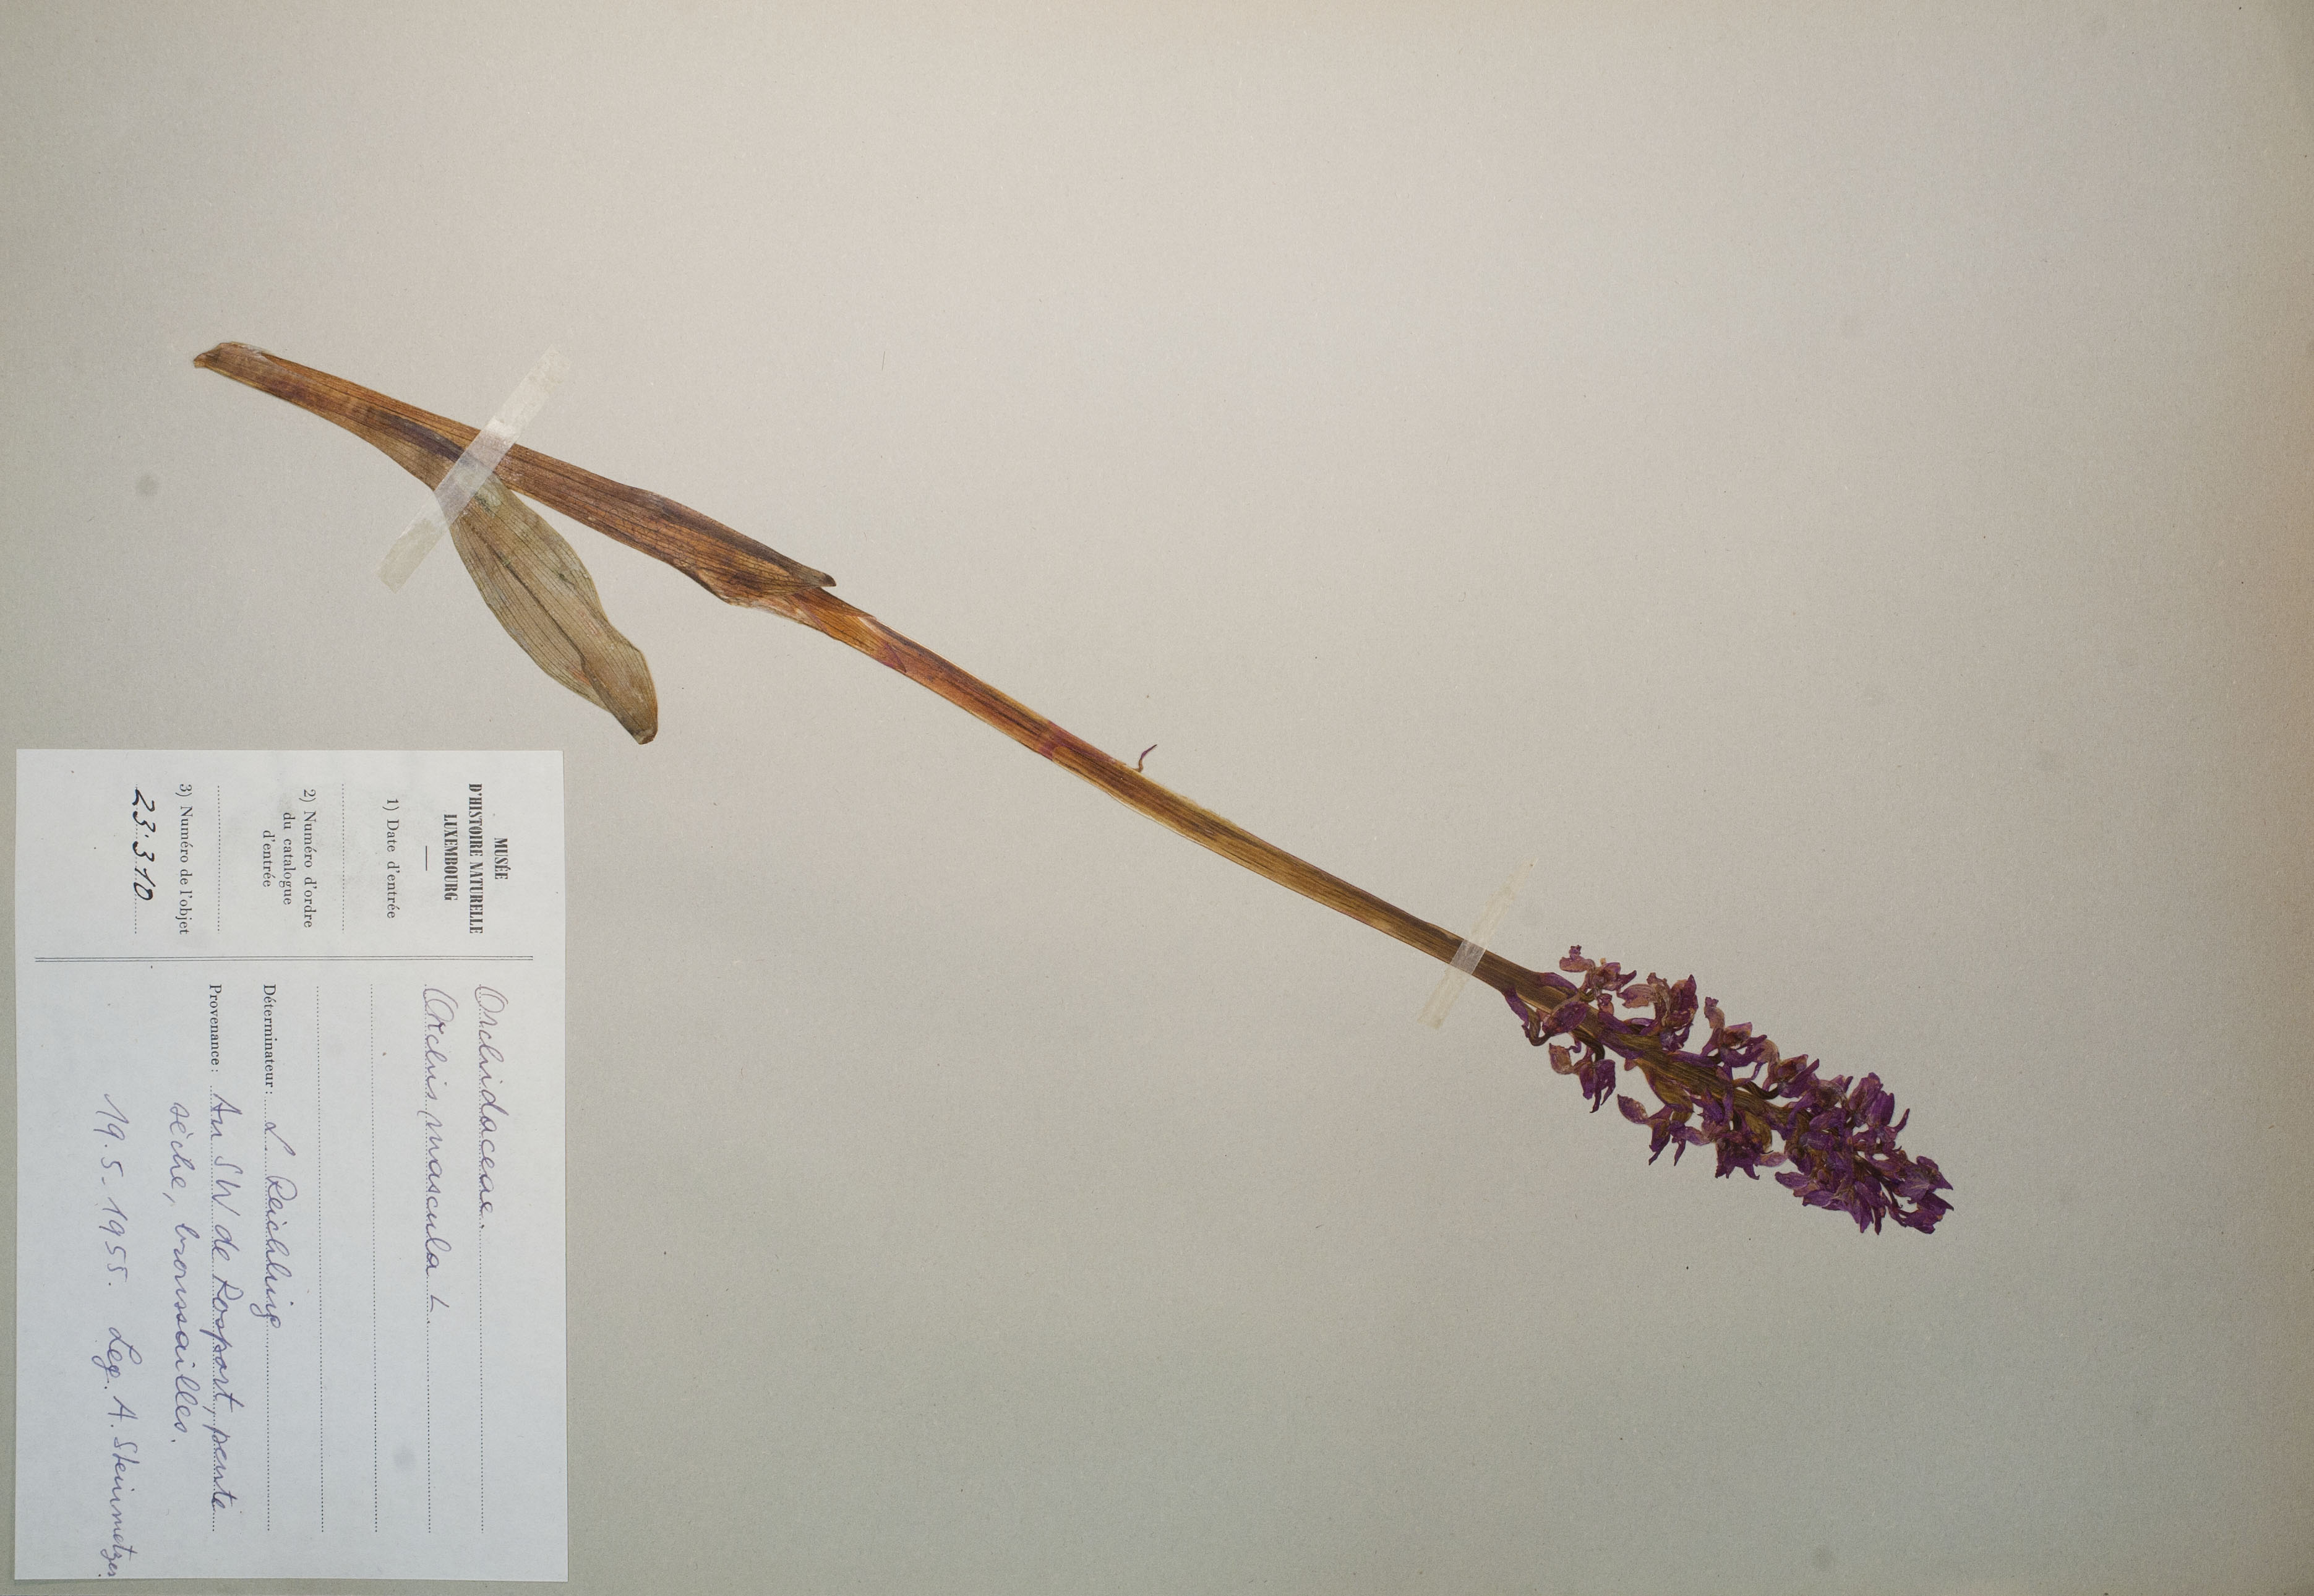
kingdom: Plantae
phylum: Tracheophyta
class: Liliopsida
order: Asparagales
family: Orchidaceae
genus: Orchis
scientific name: Orchis mascula
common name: Early-purple orchid
